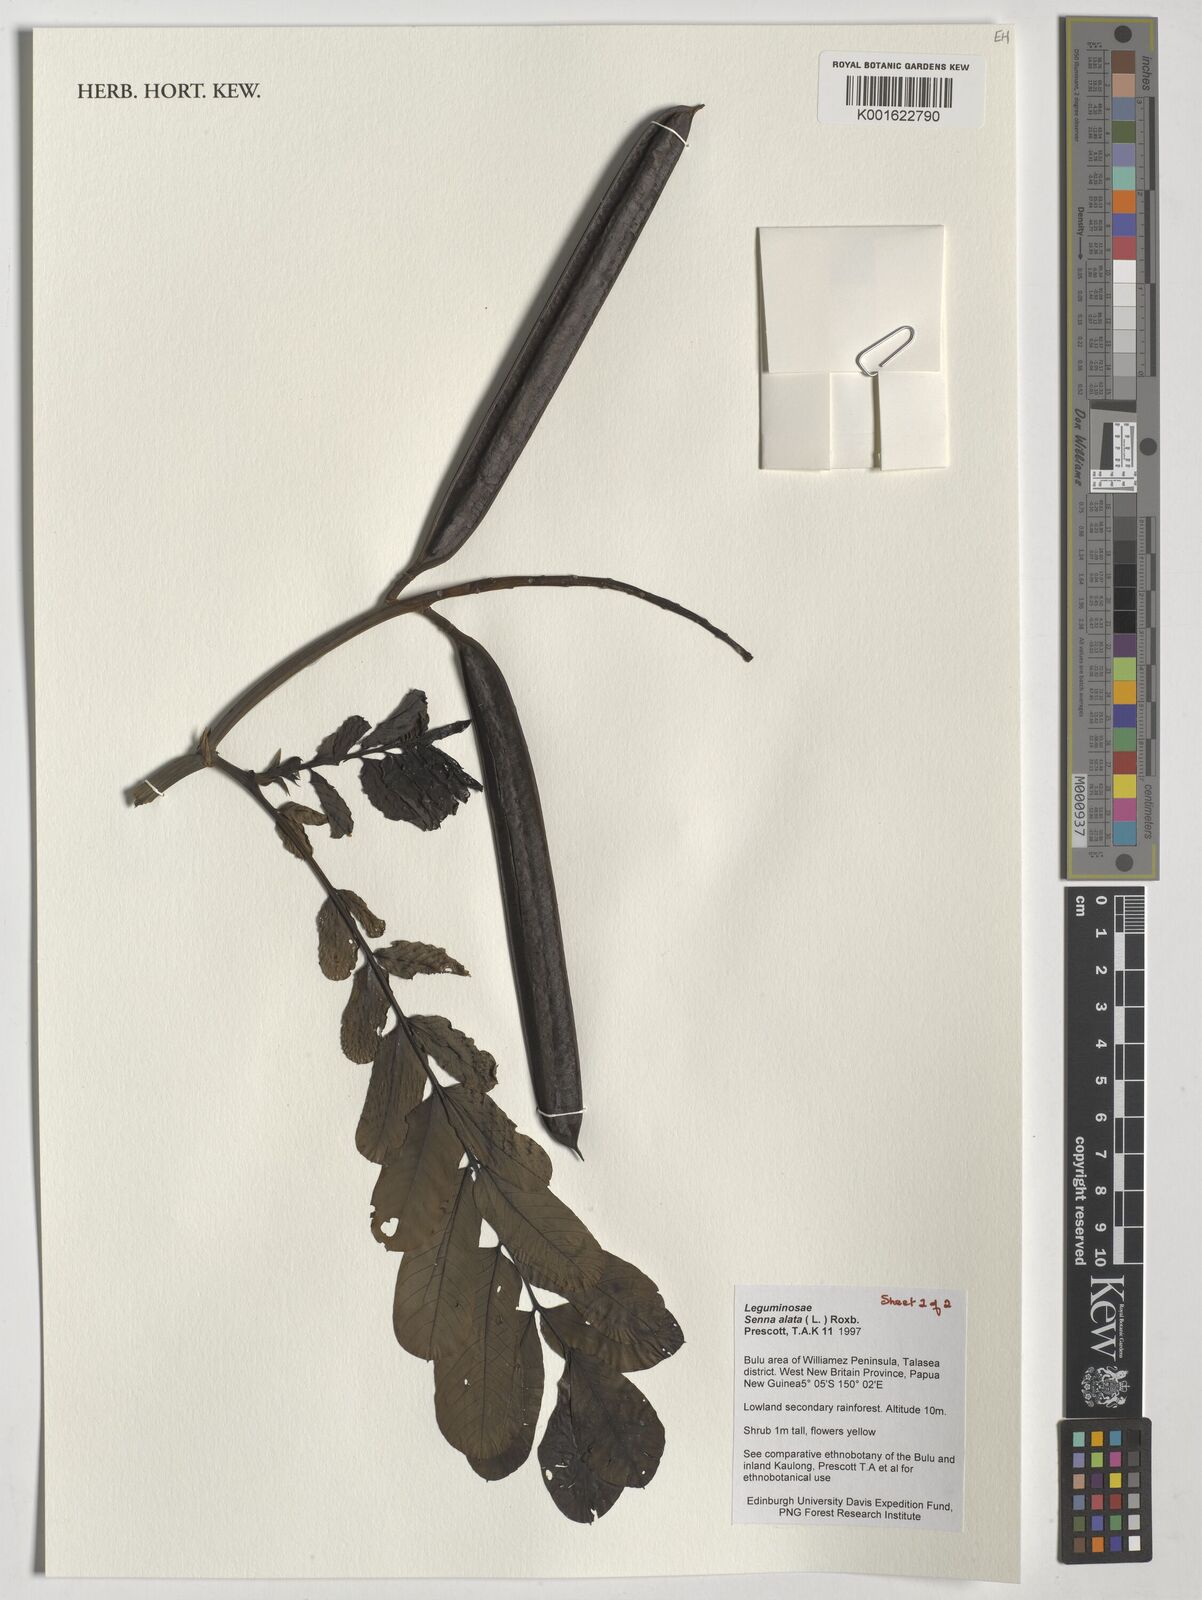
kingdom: Plantae
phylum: Tracheophyta
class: Magnoliopsida
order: Fabales
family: Fabaceae
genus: Senna
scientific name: Senna alata
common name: Emperor's candlesticks
